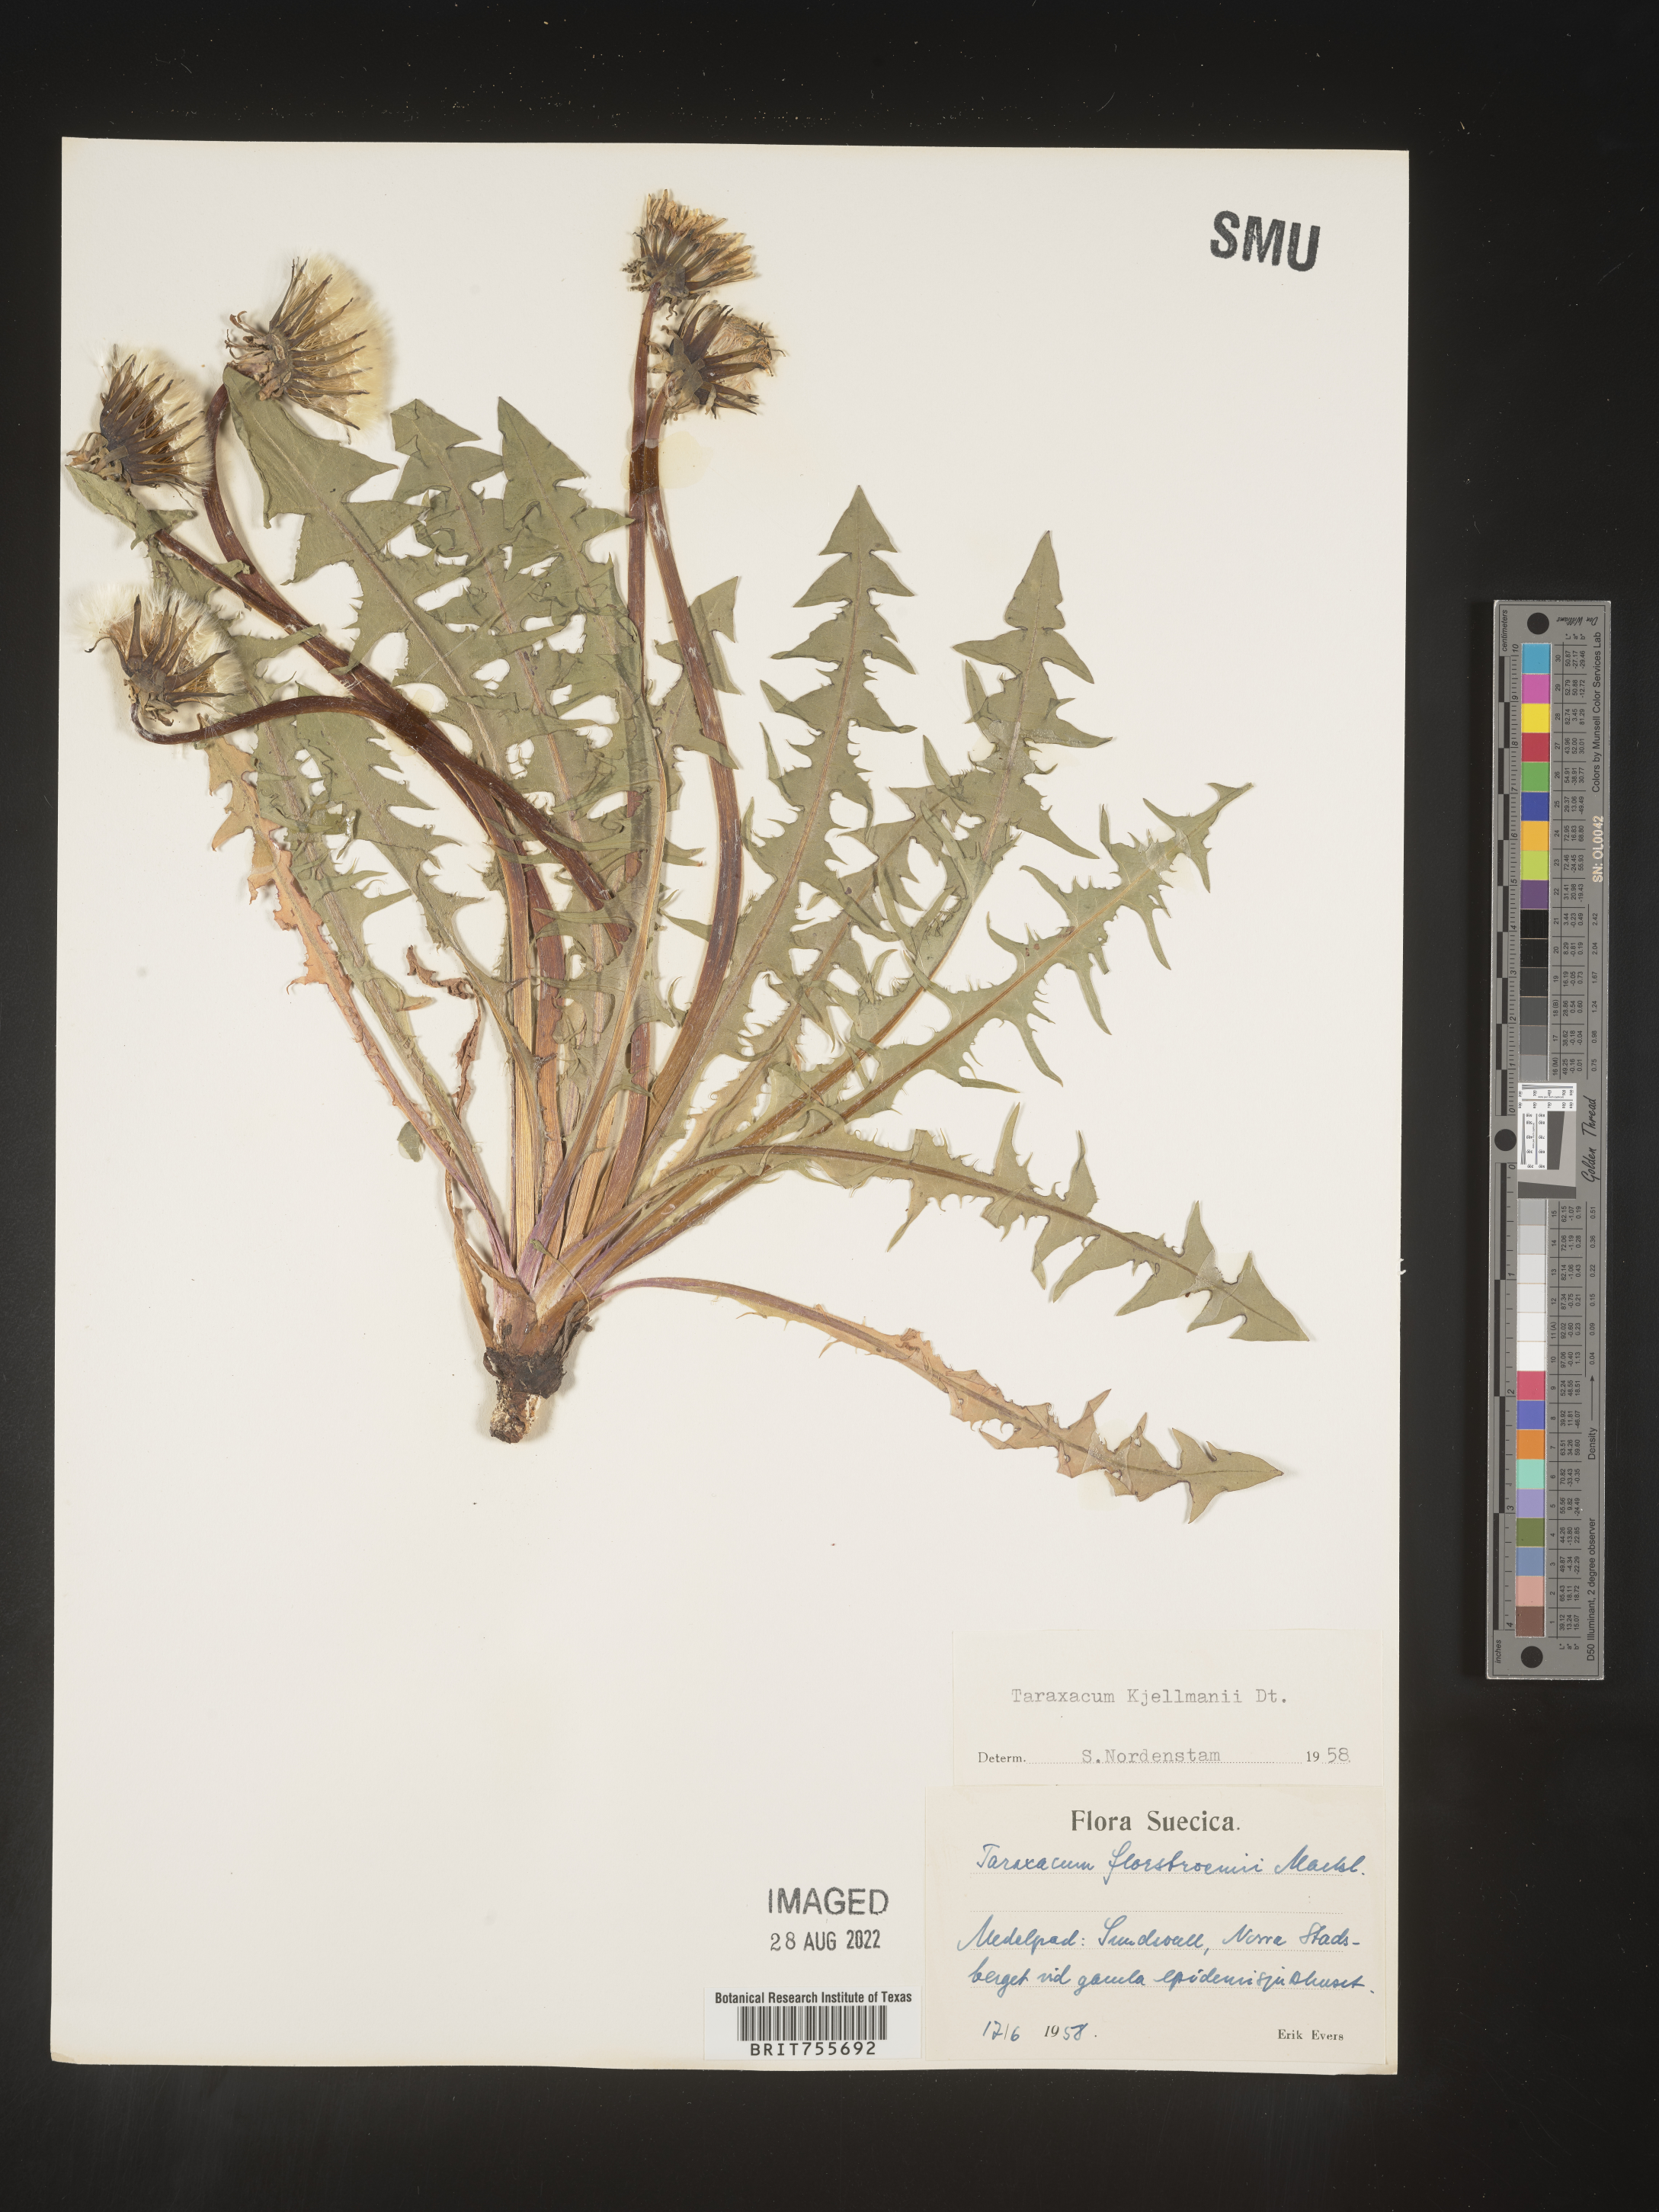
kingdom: Plantae
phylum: Tracheophyta
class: Magnoliopsida
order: Asterales
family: Asteraceae
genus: Taraxacum
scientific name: Taraxacum
